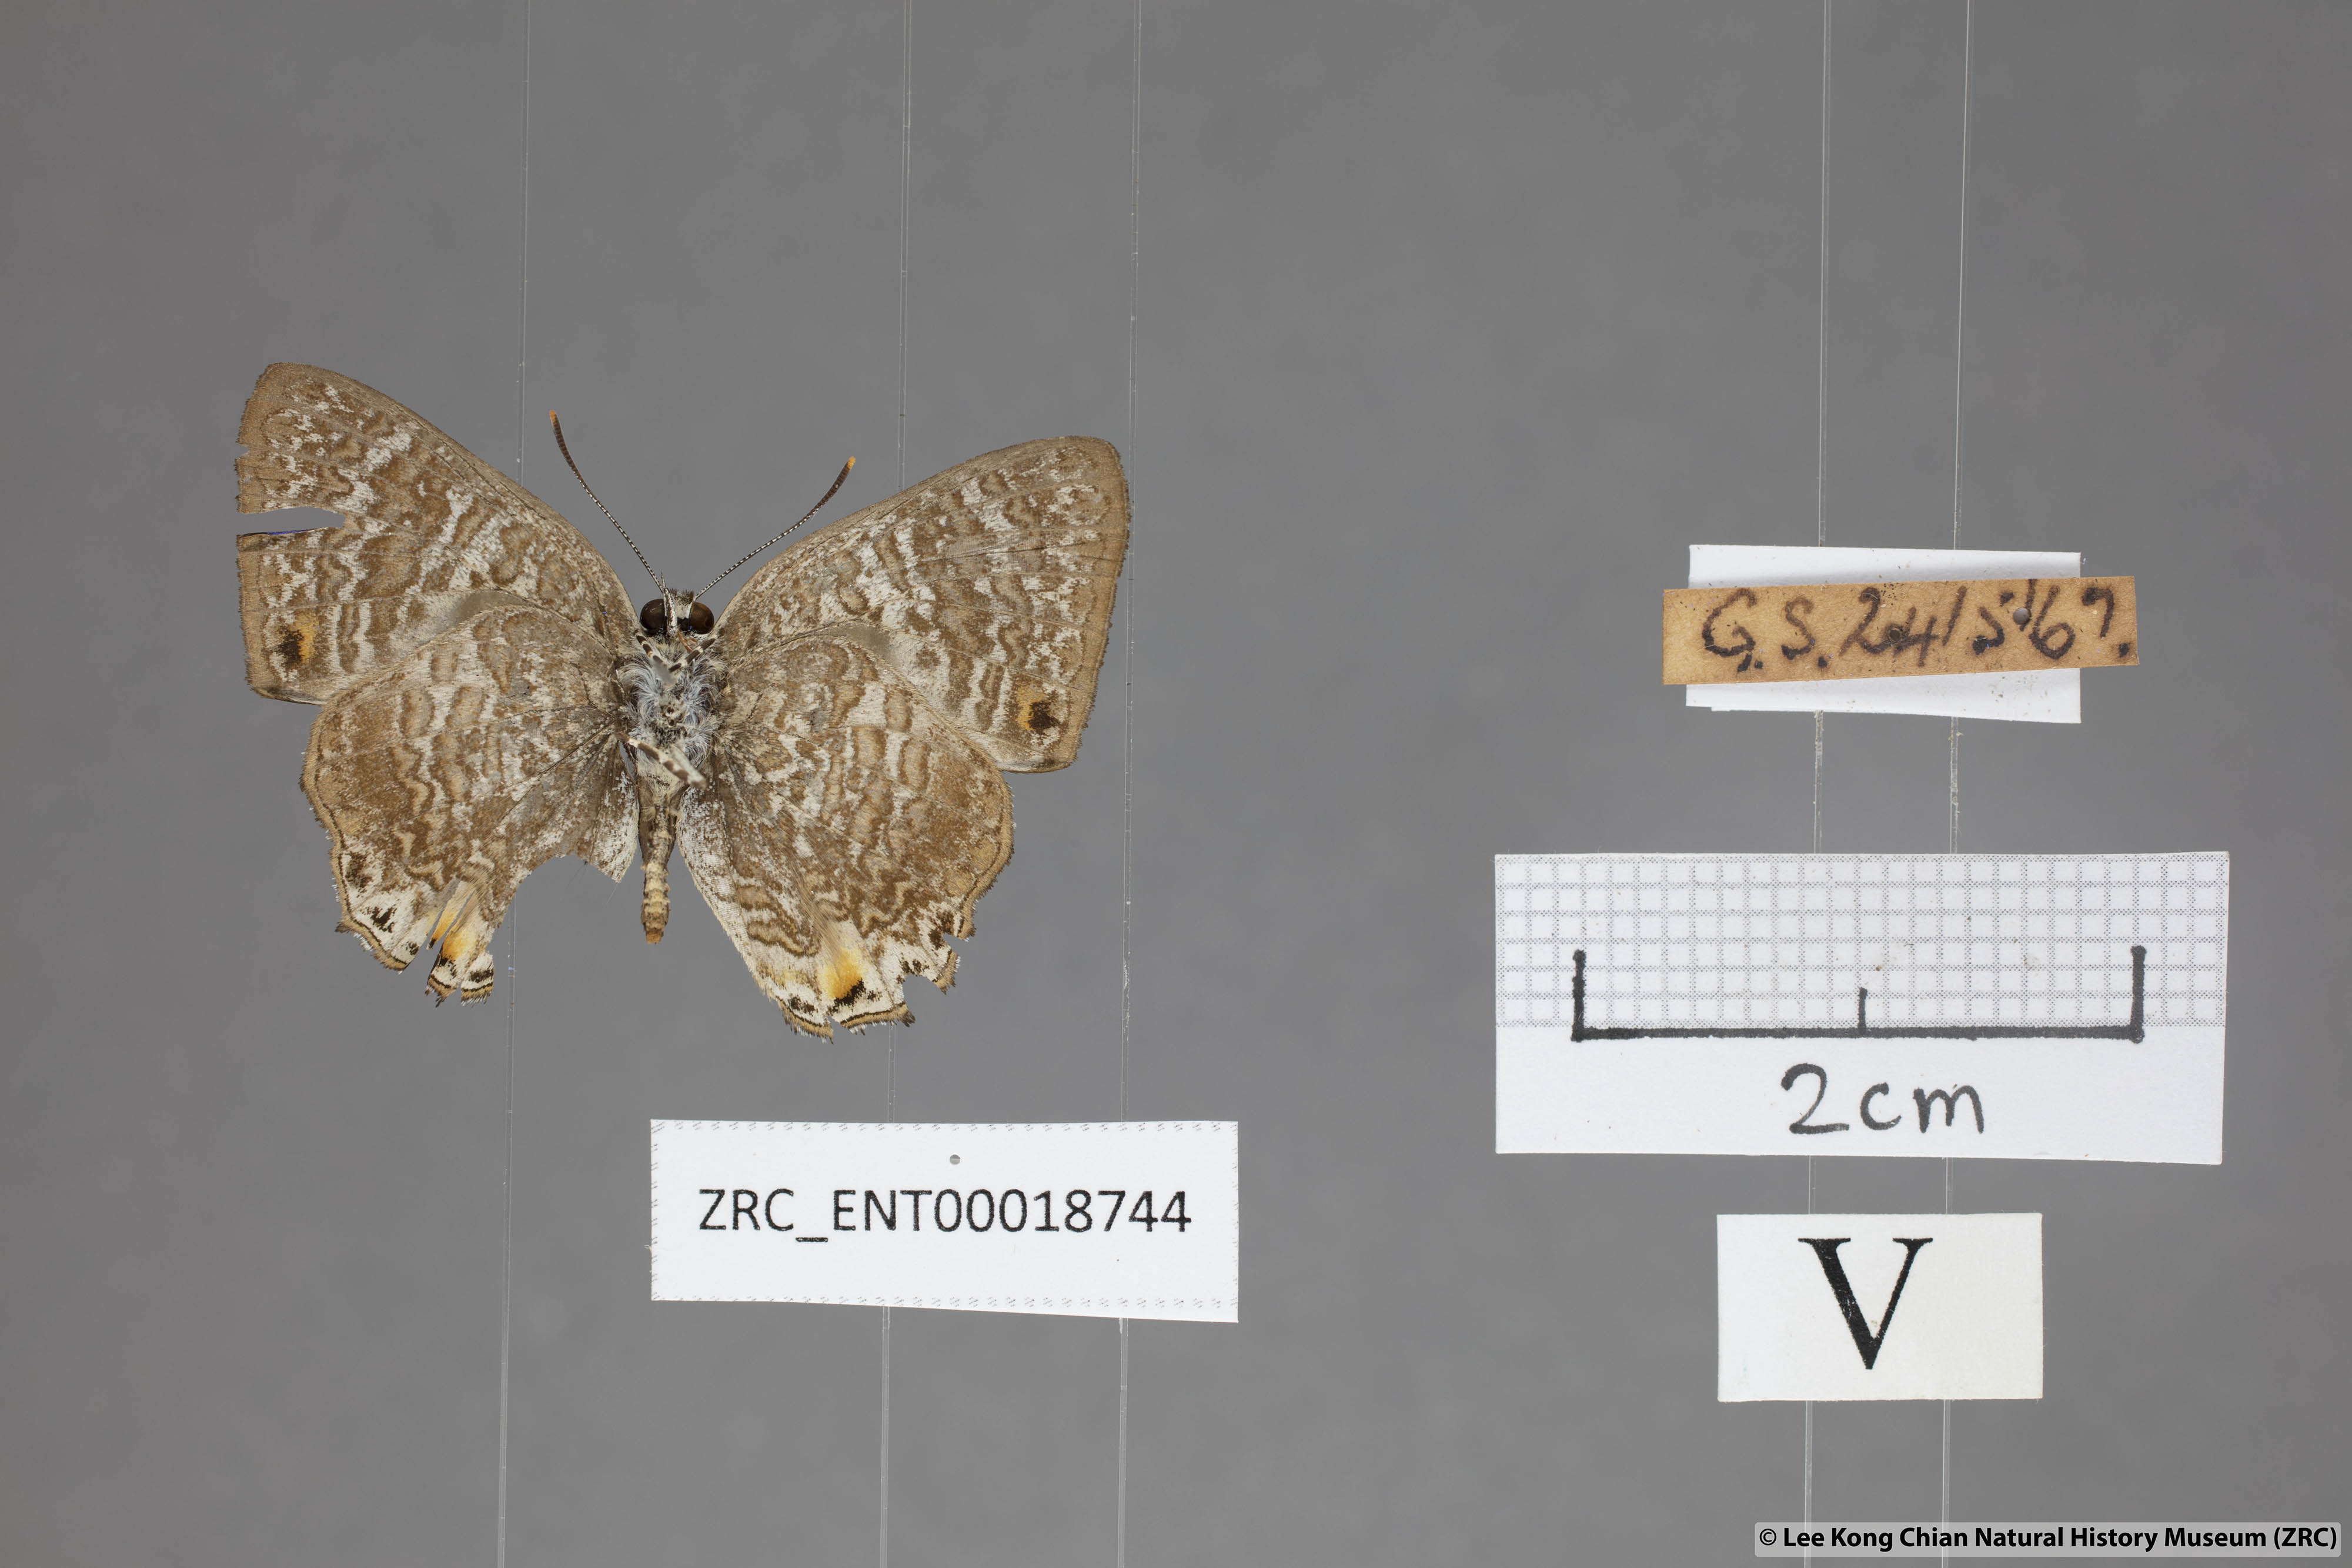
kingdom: Animalia
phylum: Arthropoda
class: Insecta
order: Lepidoptera
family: Lycaenidae
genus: Poritia
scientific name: Poritia erycinoides
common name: Blue gem
